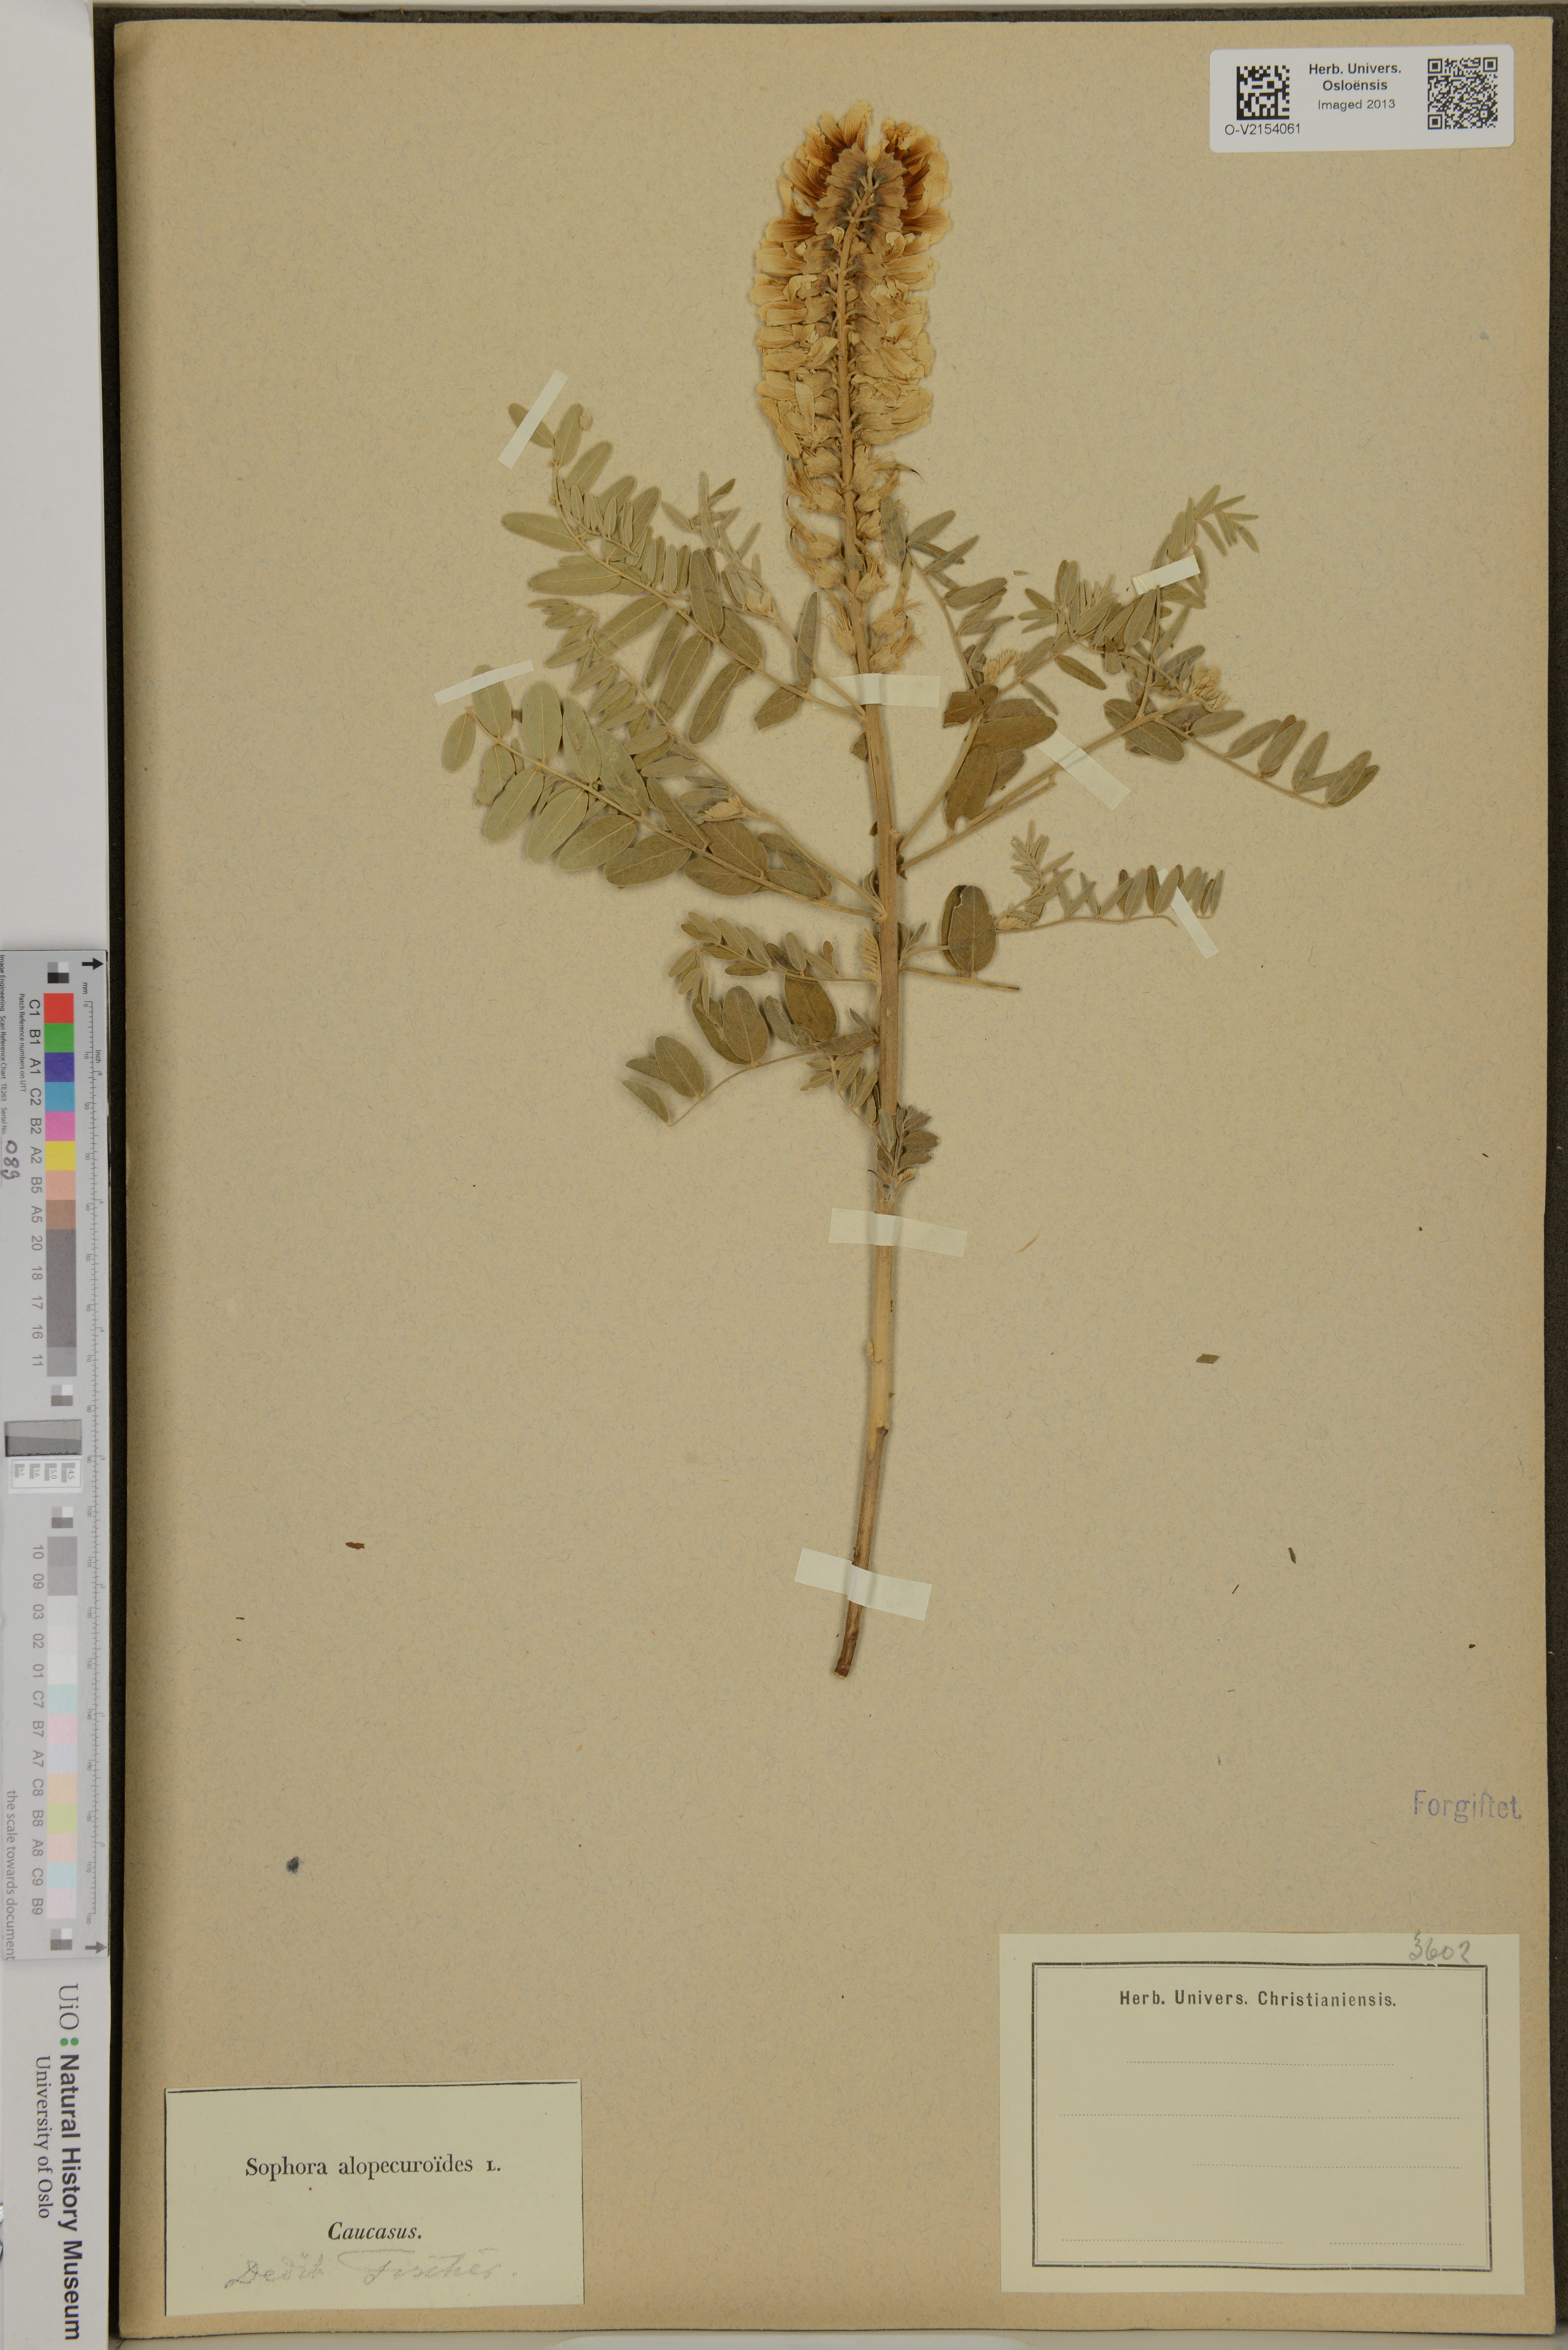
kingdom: Plantae
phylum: Tracheophyta
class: Magnoliopsida
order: Fabales
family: Fabaceae
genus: Sophora
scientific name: Sophora alopecuroides
